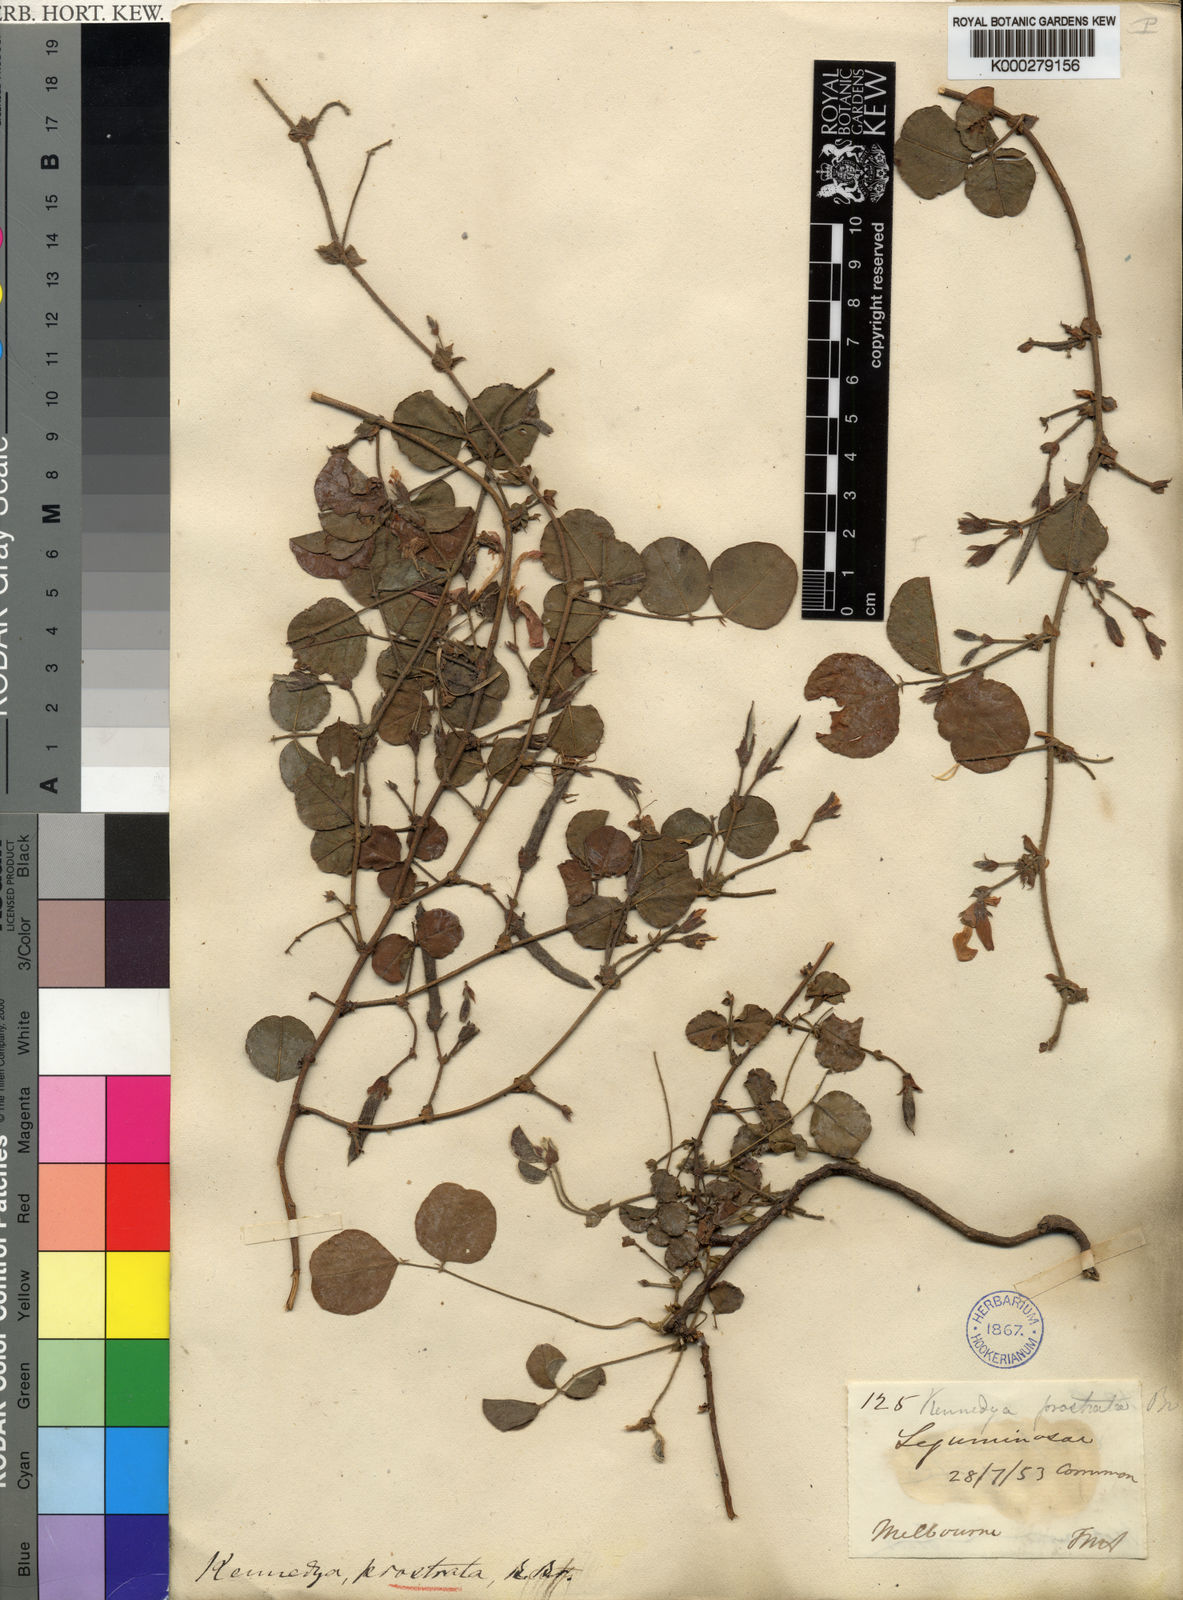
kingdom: Plantae
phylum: Tracheophyta
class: Magnoliopsida
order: Fabales
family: Fabaceae
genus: Kennedia
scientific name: Kennedia prostrata
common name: Running-postman
